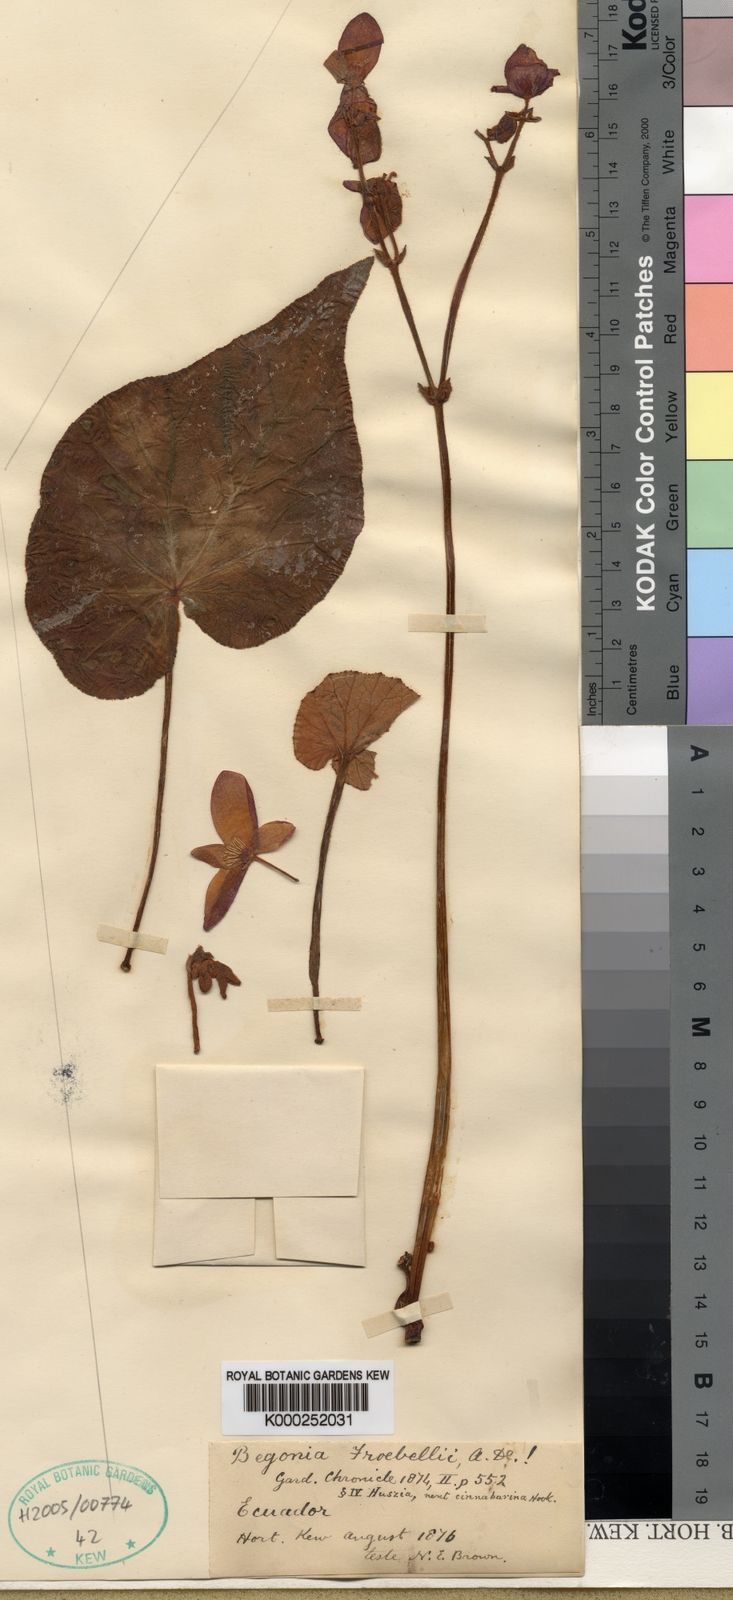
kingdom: Plantae
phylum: Tracheophyta
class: Magnoliopsida
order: Cucurbitales
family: Begoniaceae
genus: Begonia
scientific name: Begonia froebelii
